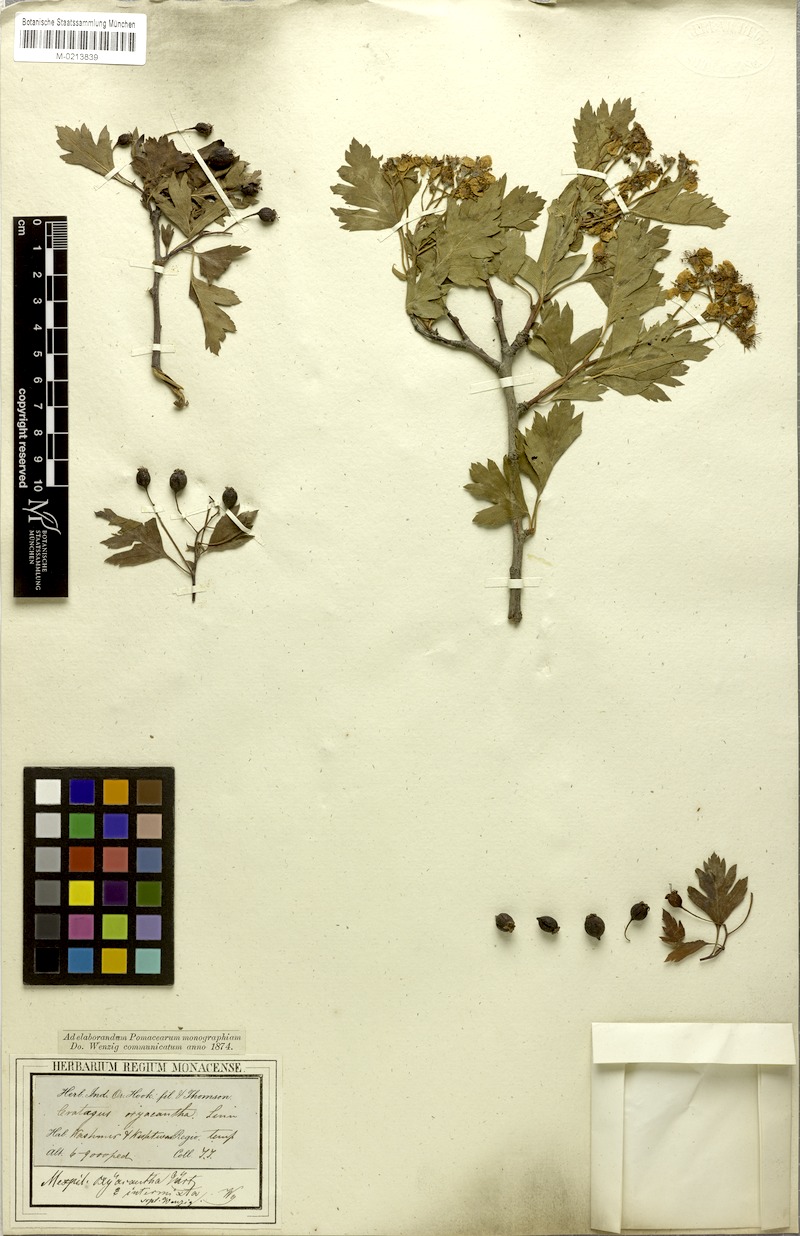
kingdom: Plantae
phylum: Tracheophyta
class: Magnoliopsida
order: Rosales
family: Rosaceae
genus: Crataegus
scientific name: Crataegus songarica
